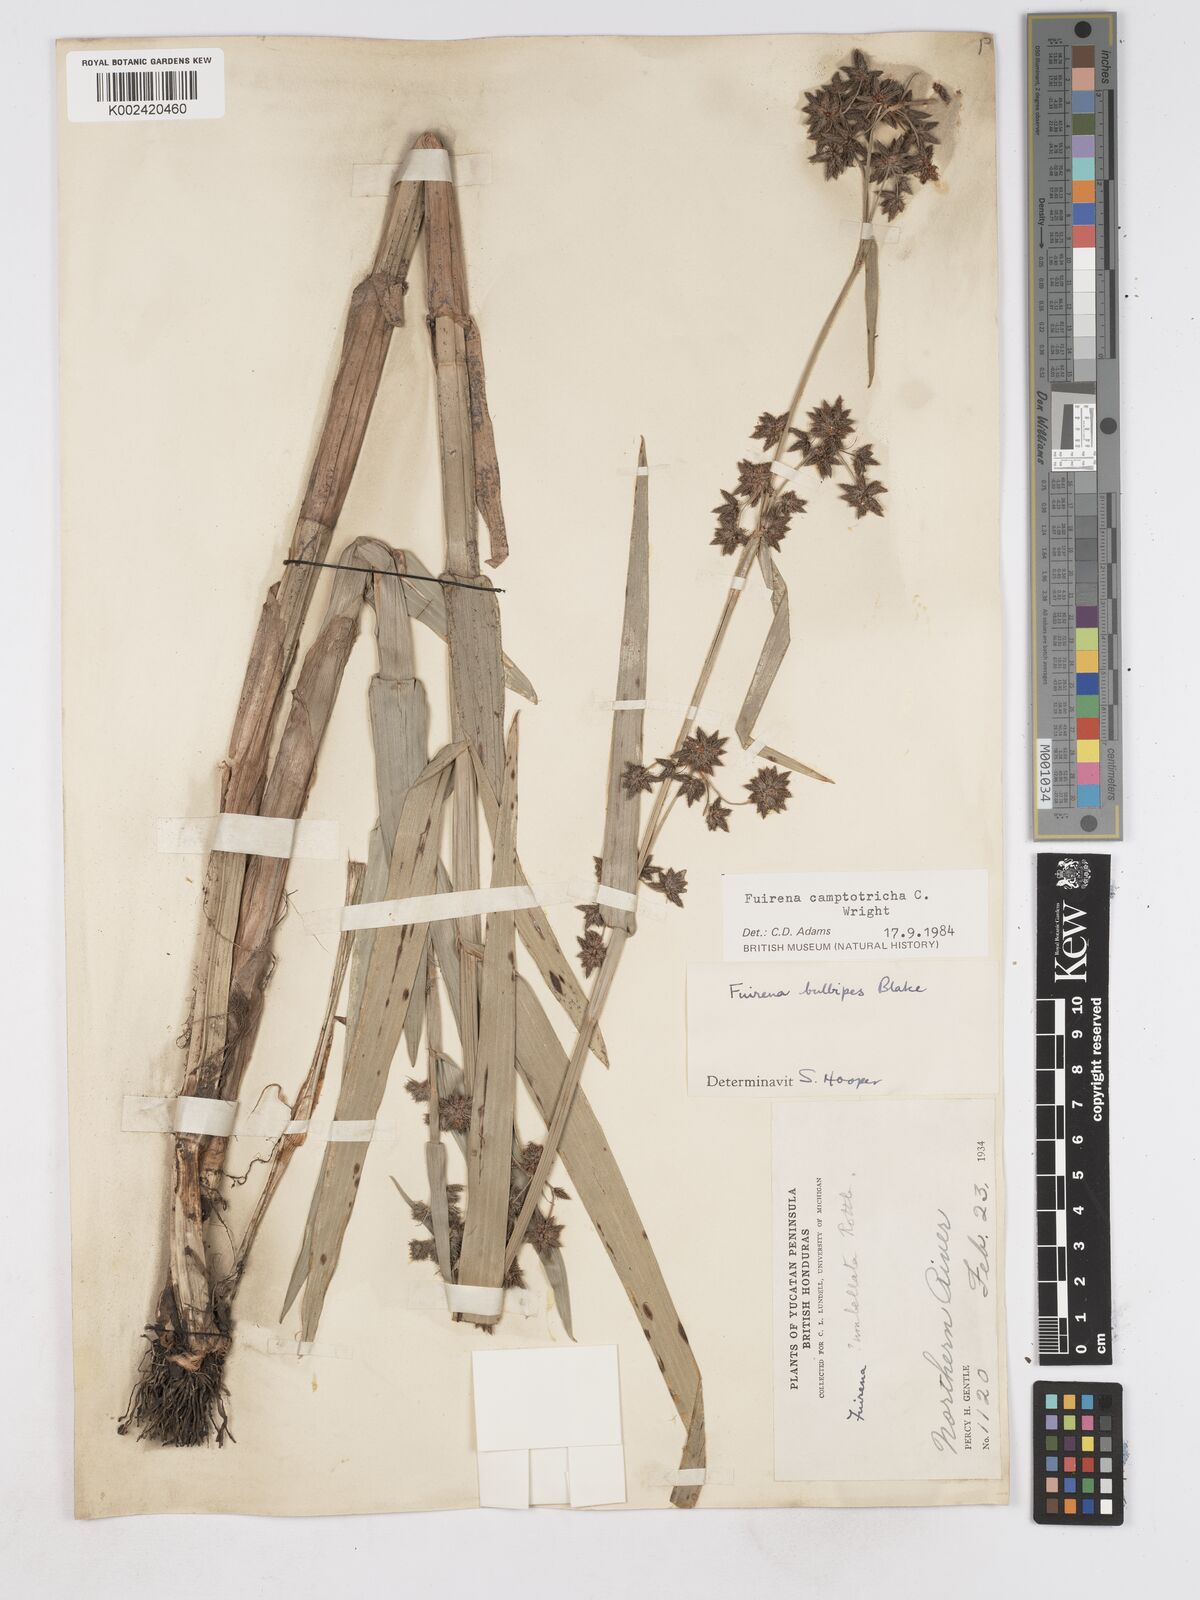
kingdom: Plantae
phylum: Tracheophyta
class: Liliopsida
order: Poales
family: Cyperaceae
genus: Fuirena
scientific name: Fuirena camptotricha
